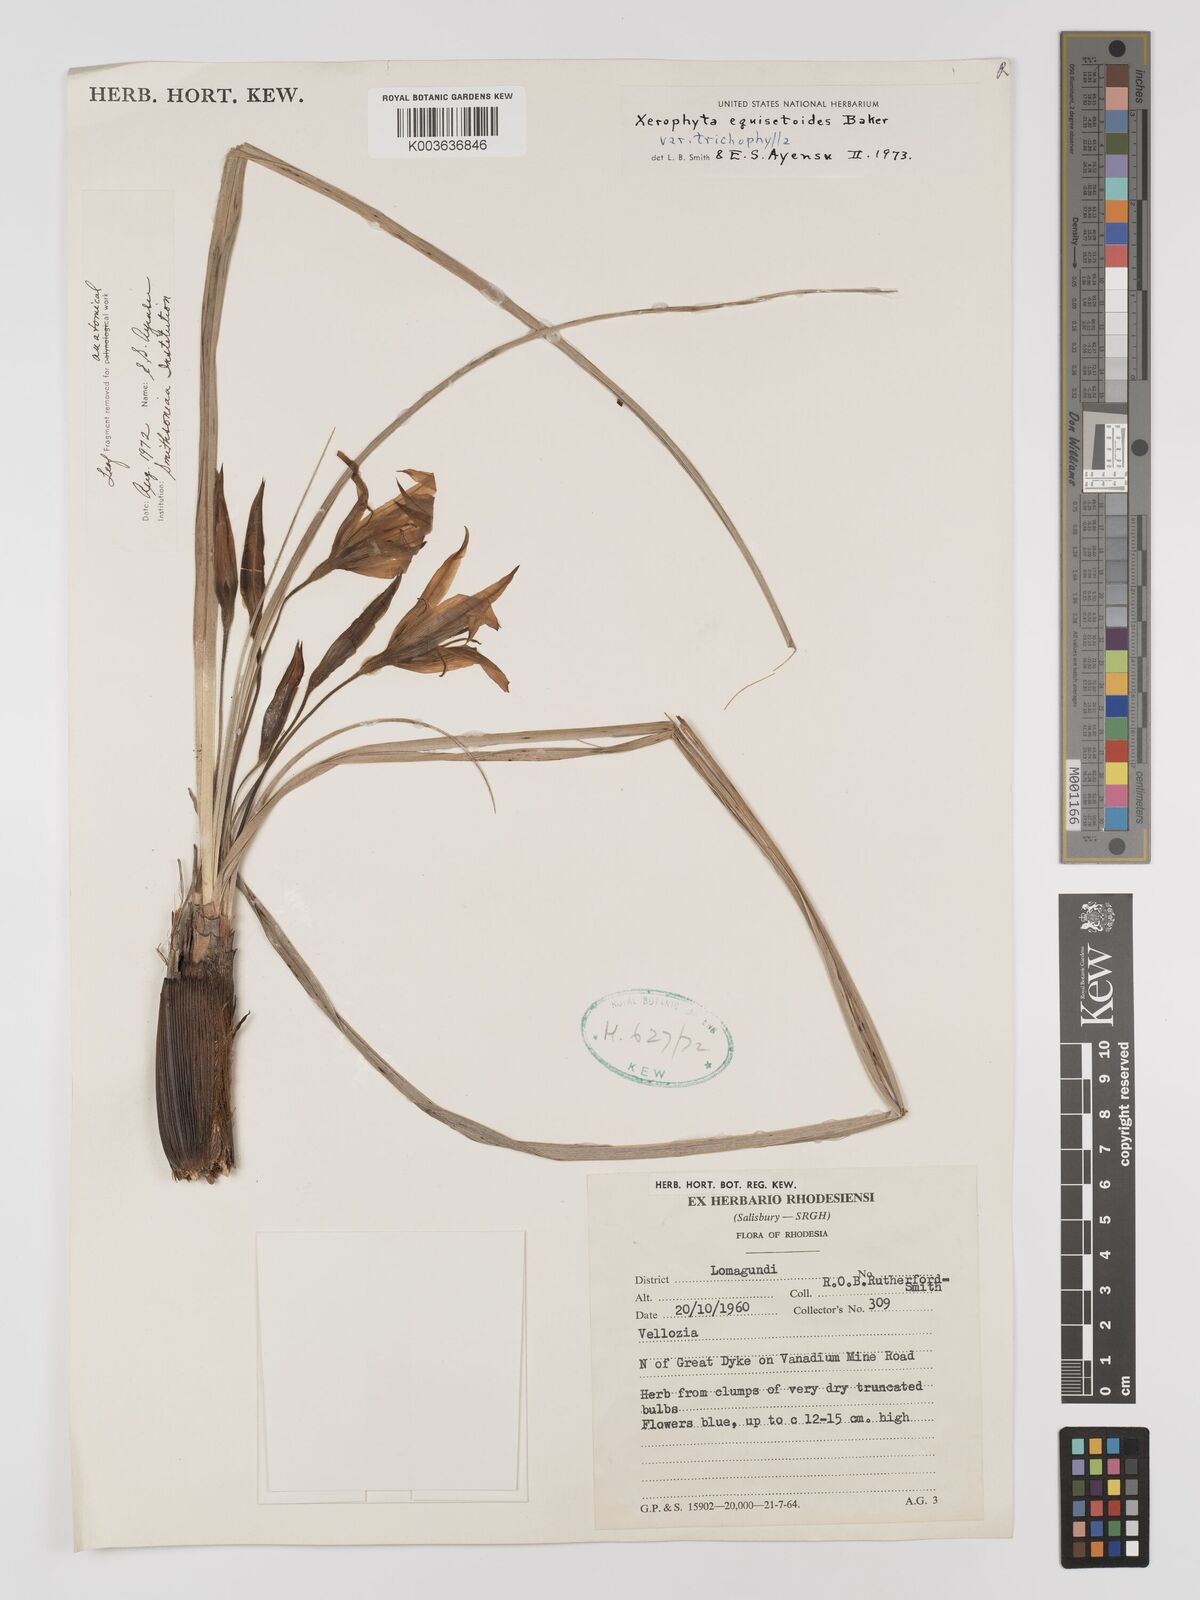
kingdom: Plantae
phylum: Tracheophyta
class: Liliopsida
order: Pandanales
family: Velloziaceae
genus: Xerophyta
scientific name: Xerophyta trichophylla
